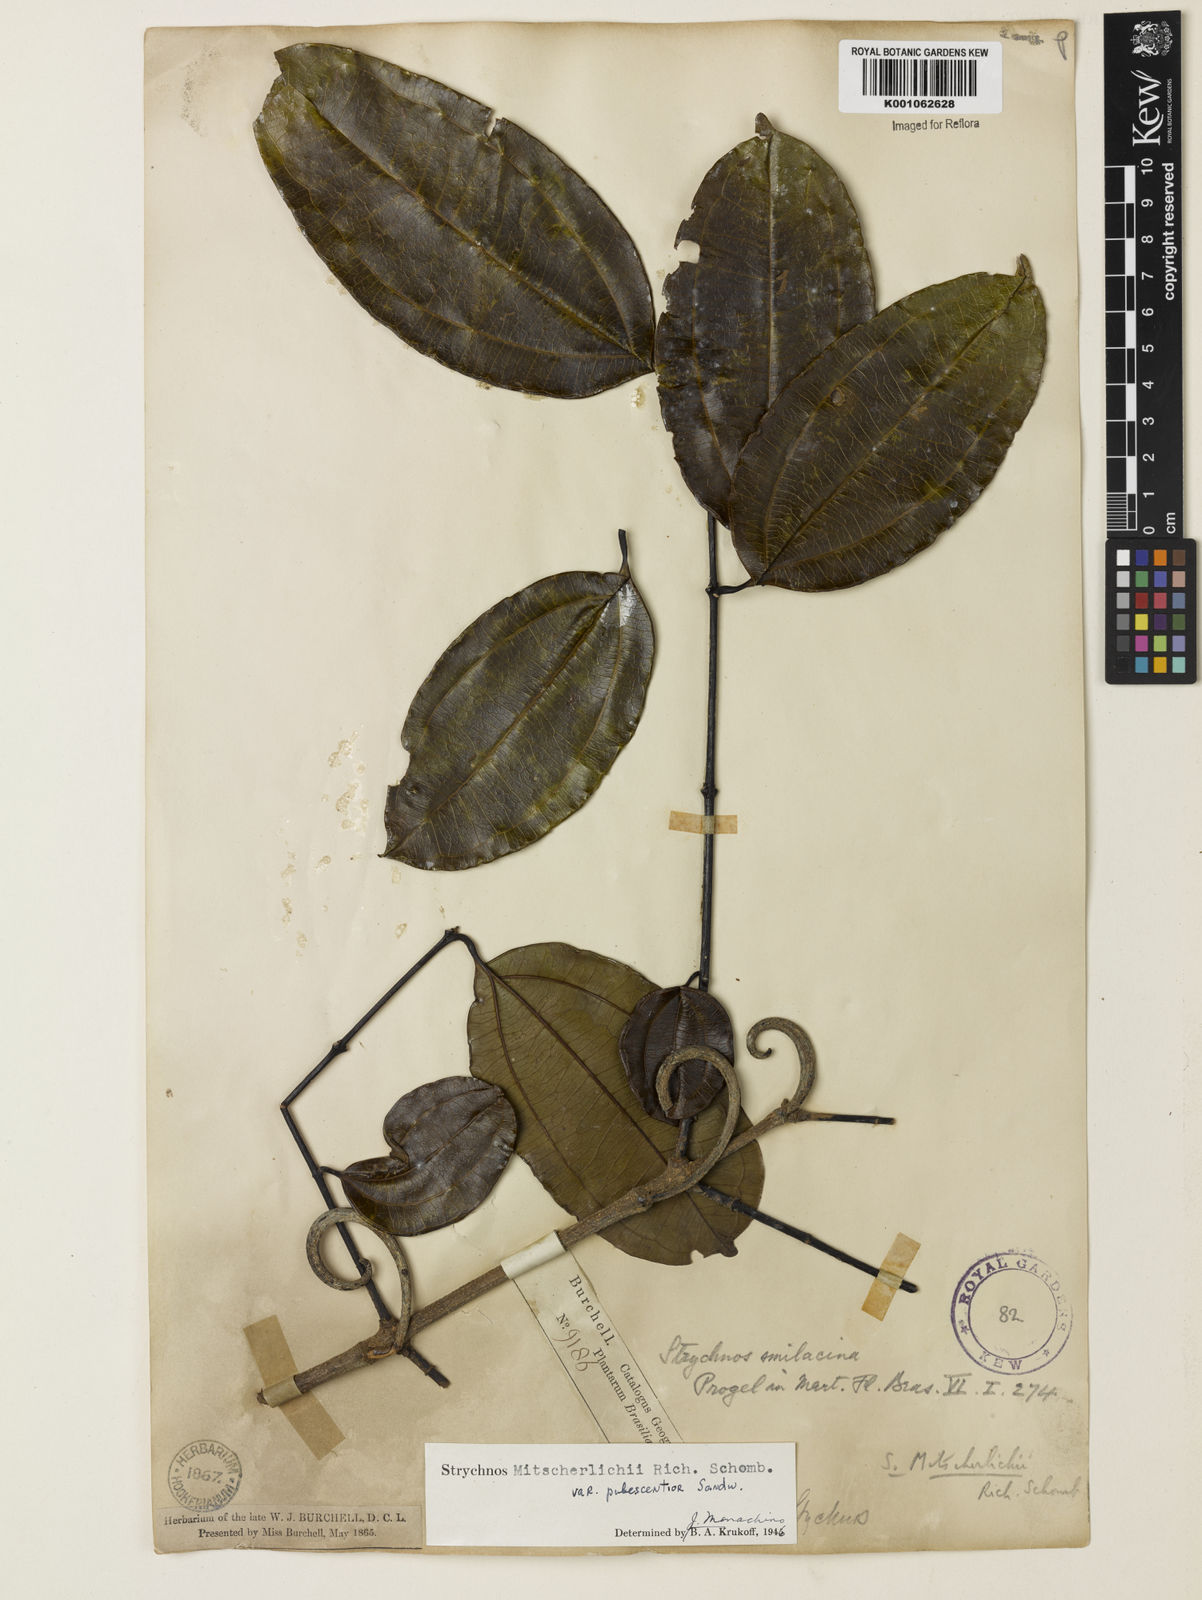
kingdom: Plantae
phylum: Tracheophyta
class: Magnoliopsida
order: Gentianales
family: Loganiaceae
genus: Strychnos
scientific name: Strychnos mitscherlichii
